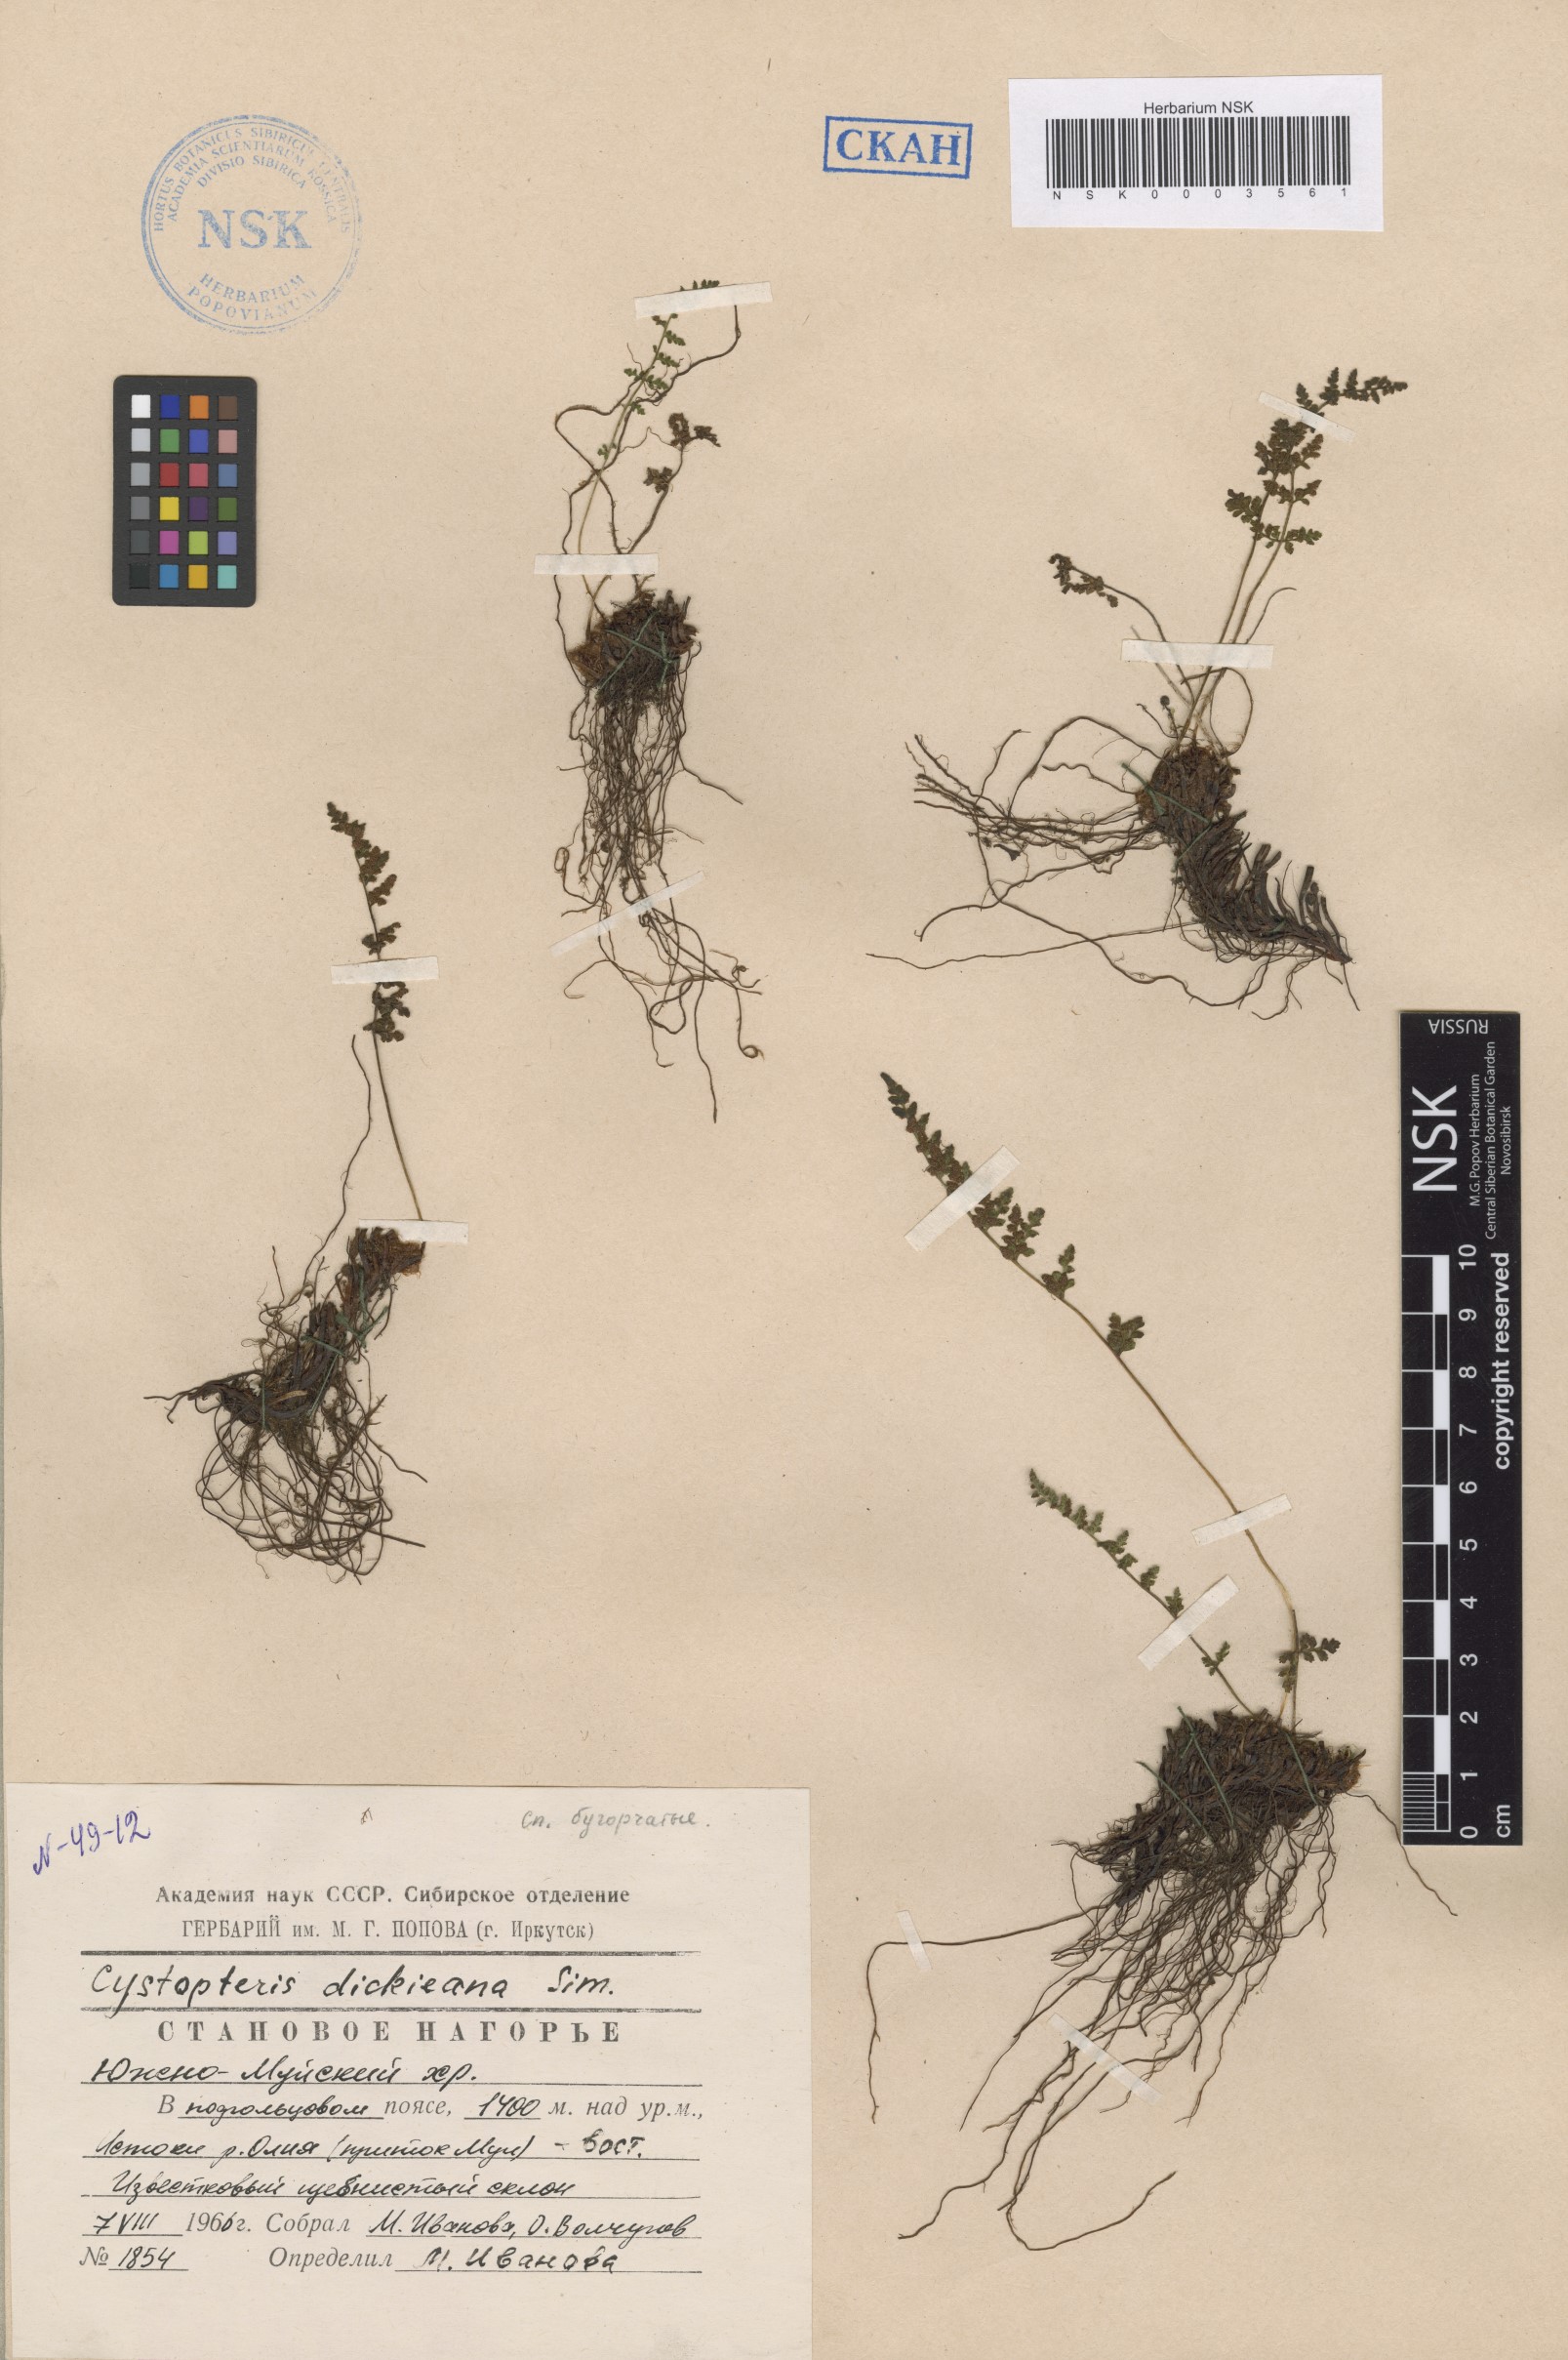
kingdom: Plantae
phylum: Tracheophyta
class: Polypodiopsida
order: Polypodiales
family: Cystopteridaceae
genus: Cystopteris
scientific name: Cystopteris dickieana
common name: Dickie's bladder-fern
